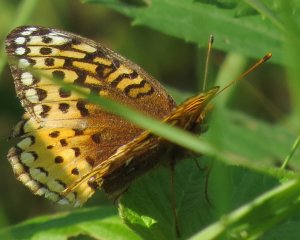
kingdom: Animalia
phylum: Arthropoda
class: Insecta
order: Lepidoptera
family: Nymphalidae
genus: Speyeria
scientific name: Speyeria cybele
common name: Great Spangled Fritillary
